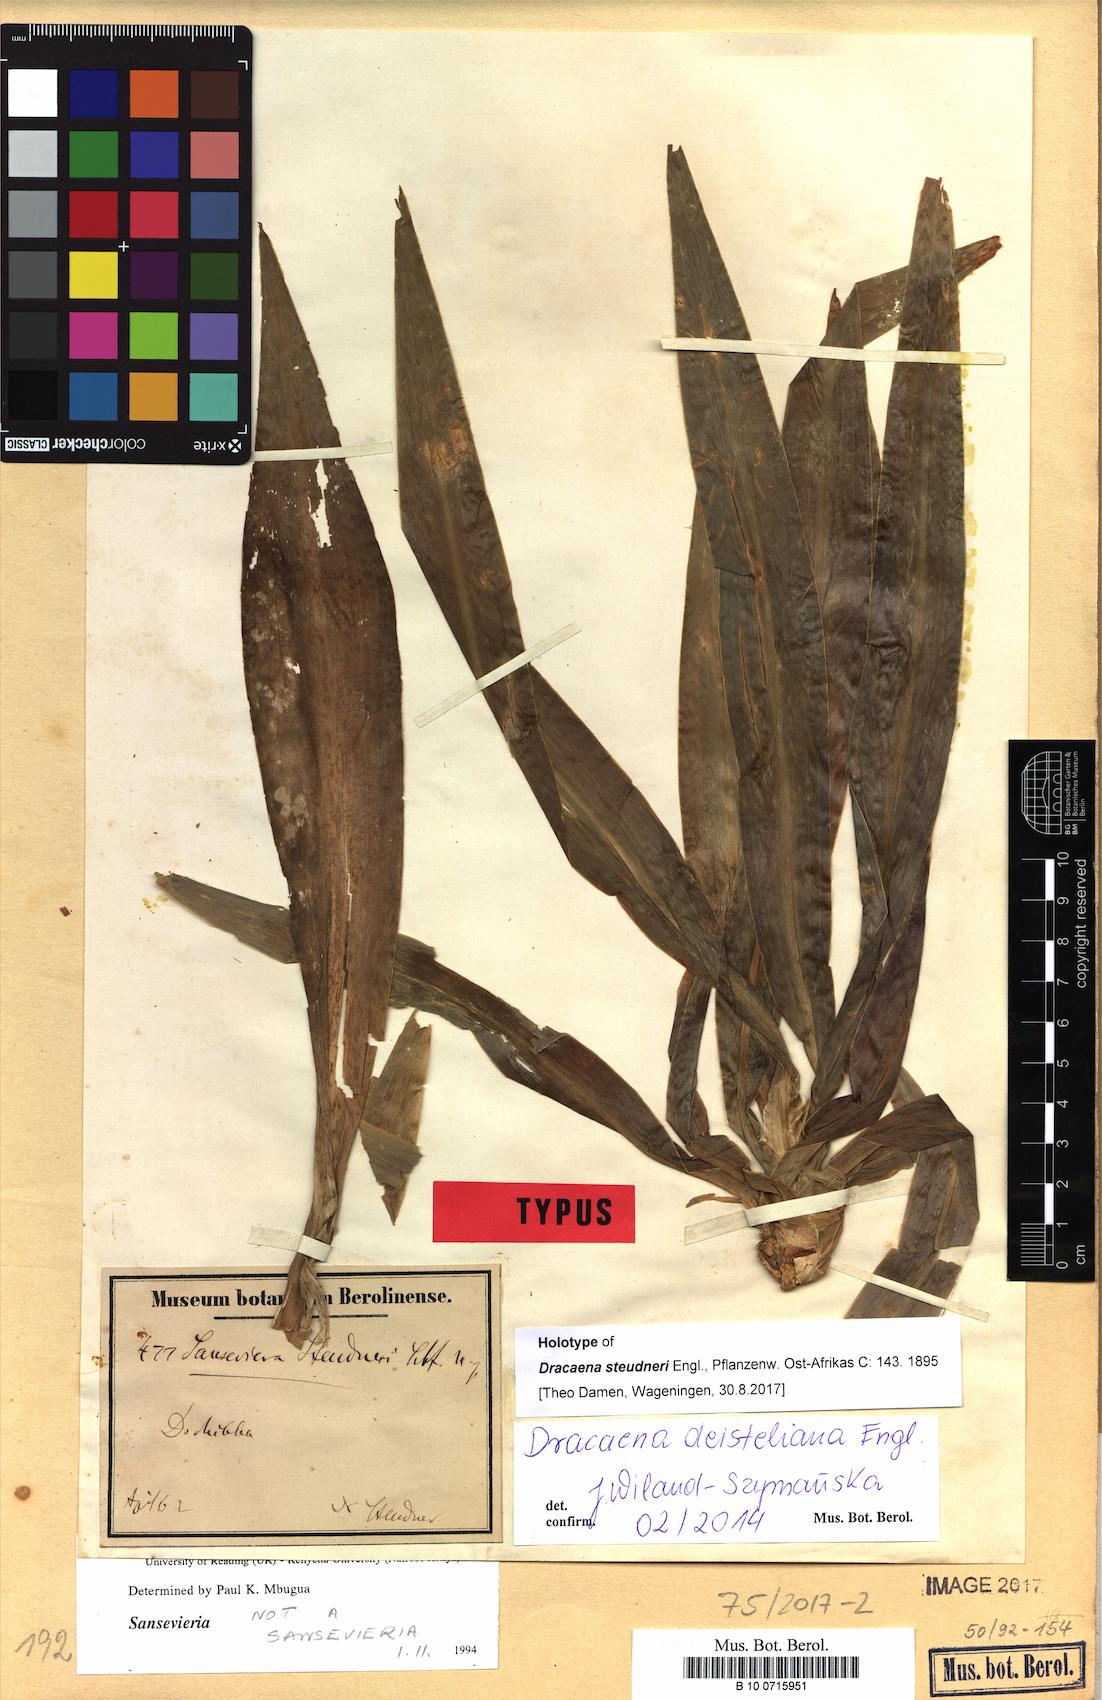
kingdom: Plantae
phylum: Tracheophyta
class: Liliopsida
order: Asparagales
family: Asparagaceae
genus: Dracaena
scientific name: Dracaena steudneri
